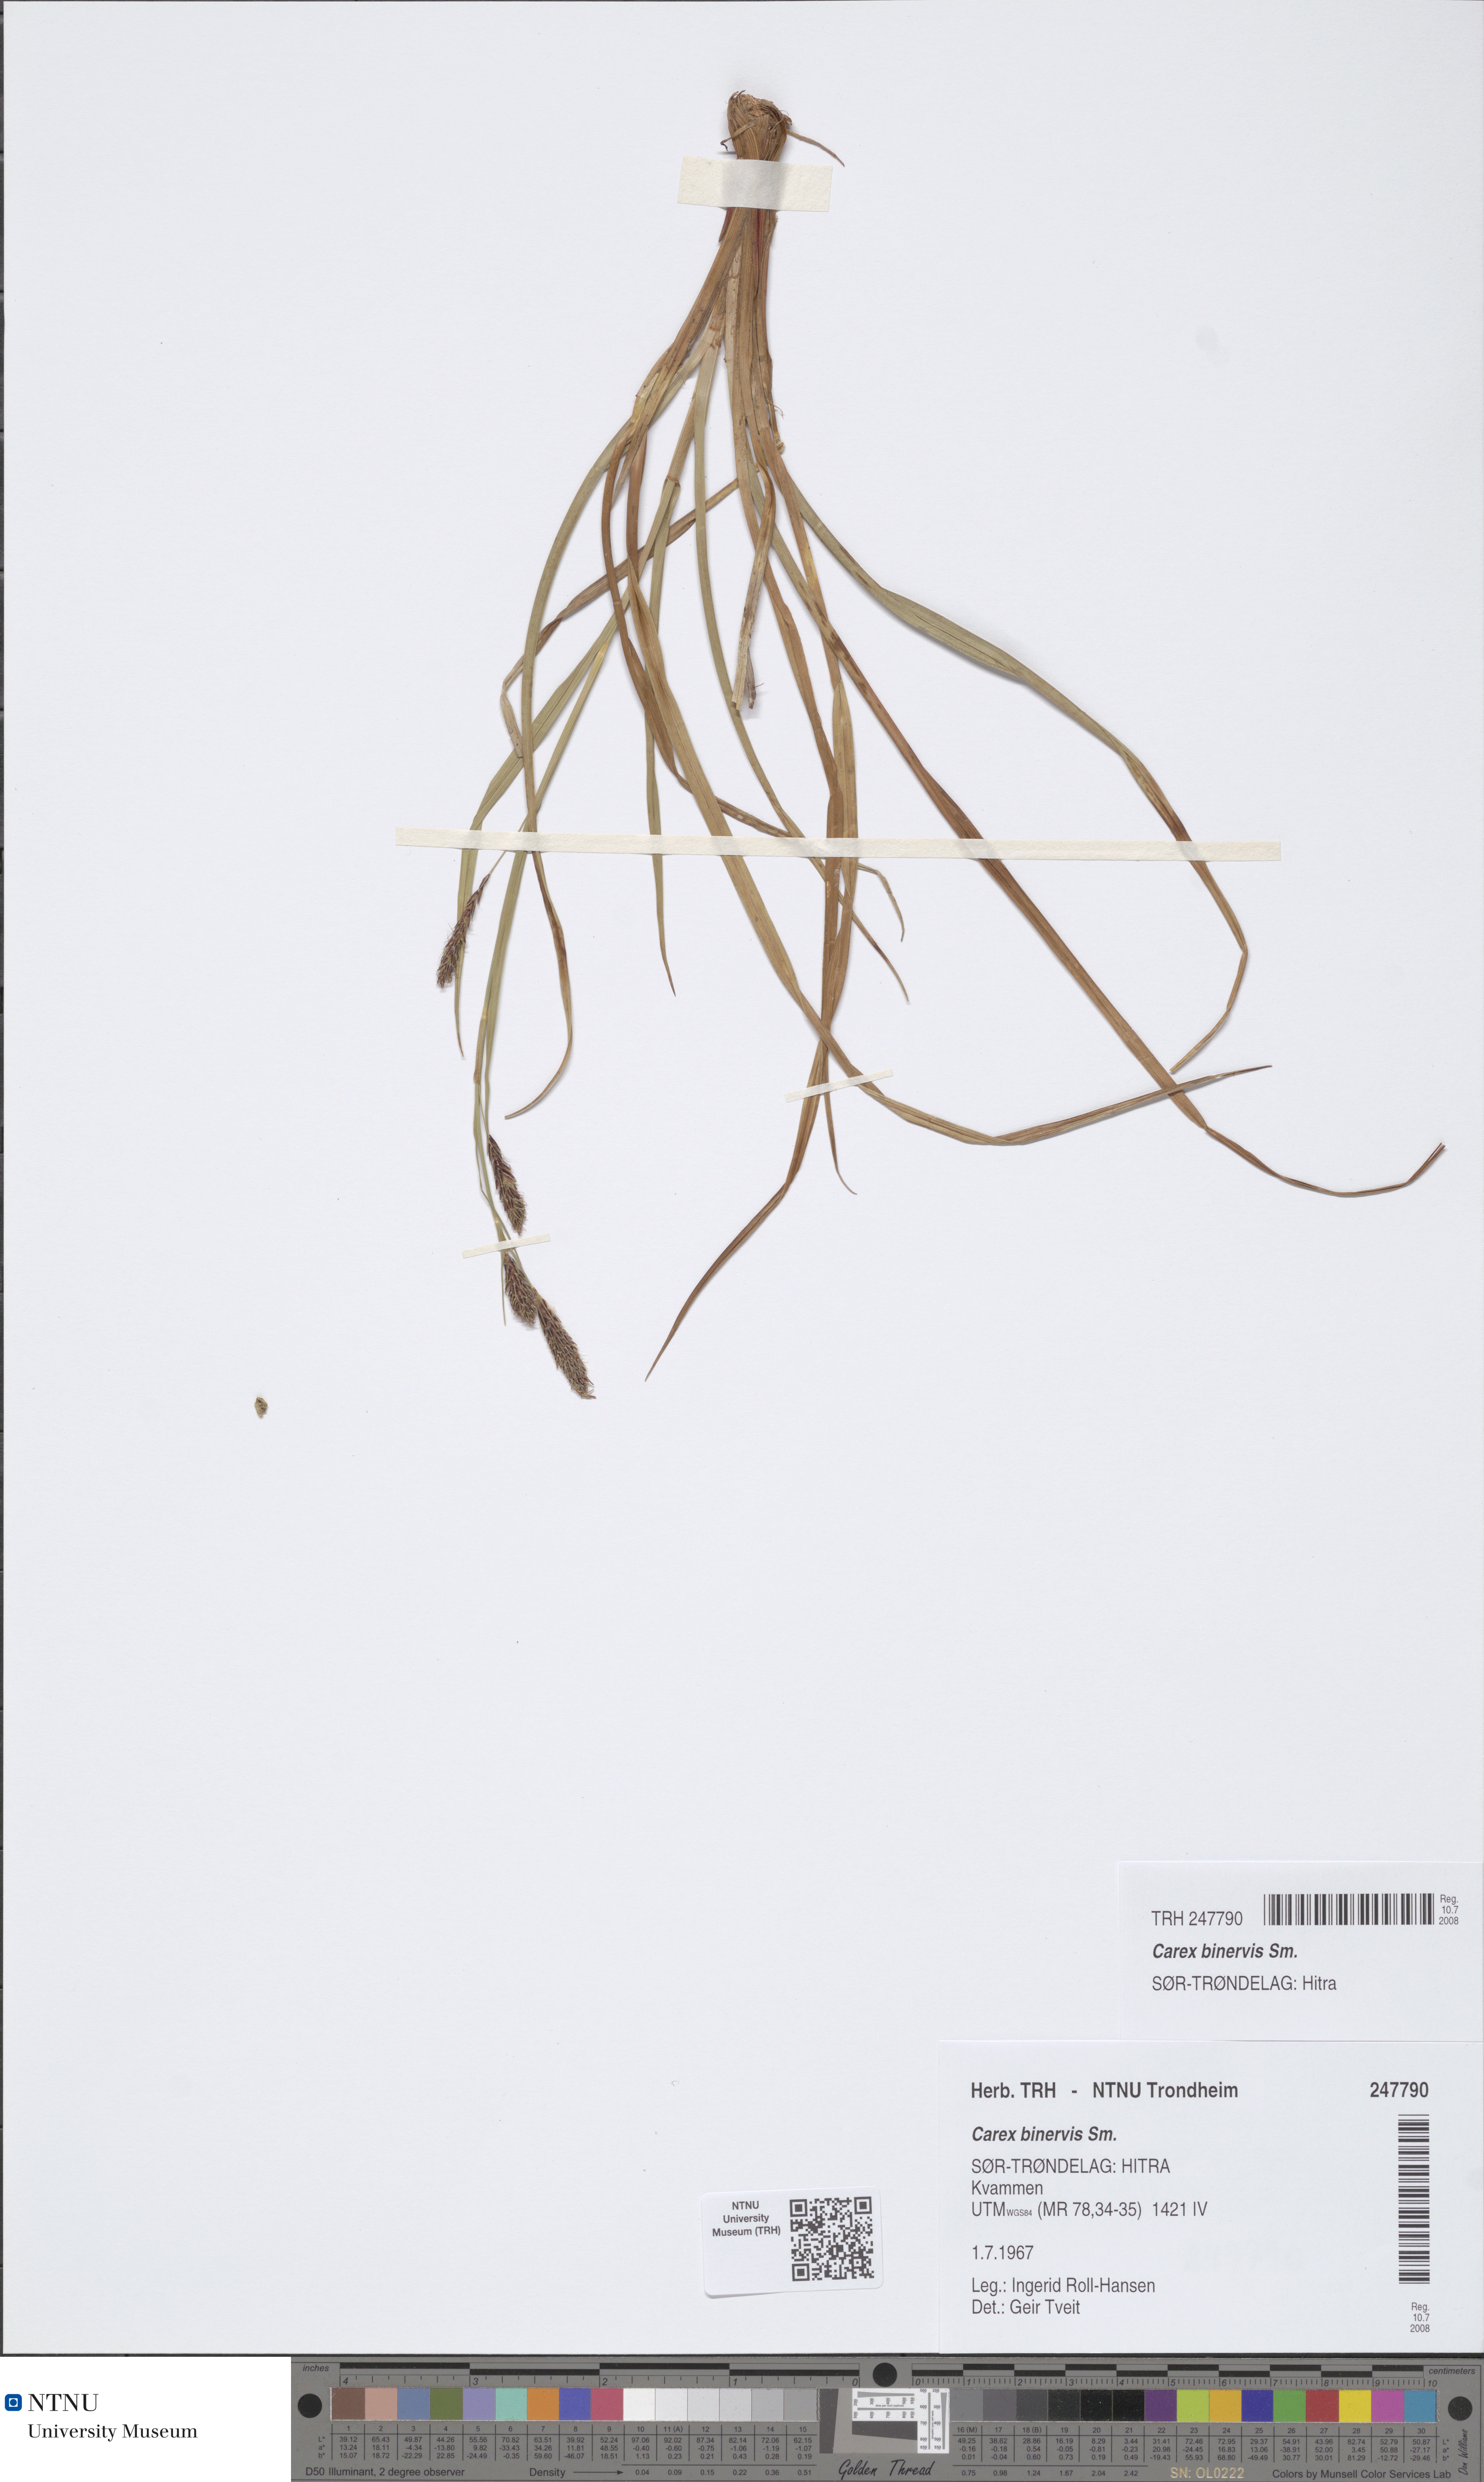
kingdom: Plantae
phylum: Tracheophyta
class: Liliopsida
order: Poales
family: Cyperaceae
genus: Carex
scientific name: Carex binervis
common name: Green-ribbed sedge
